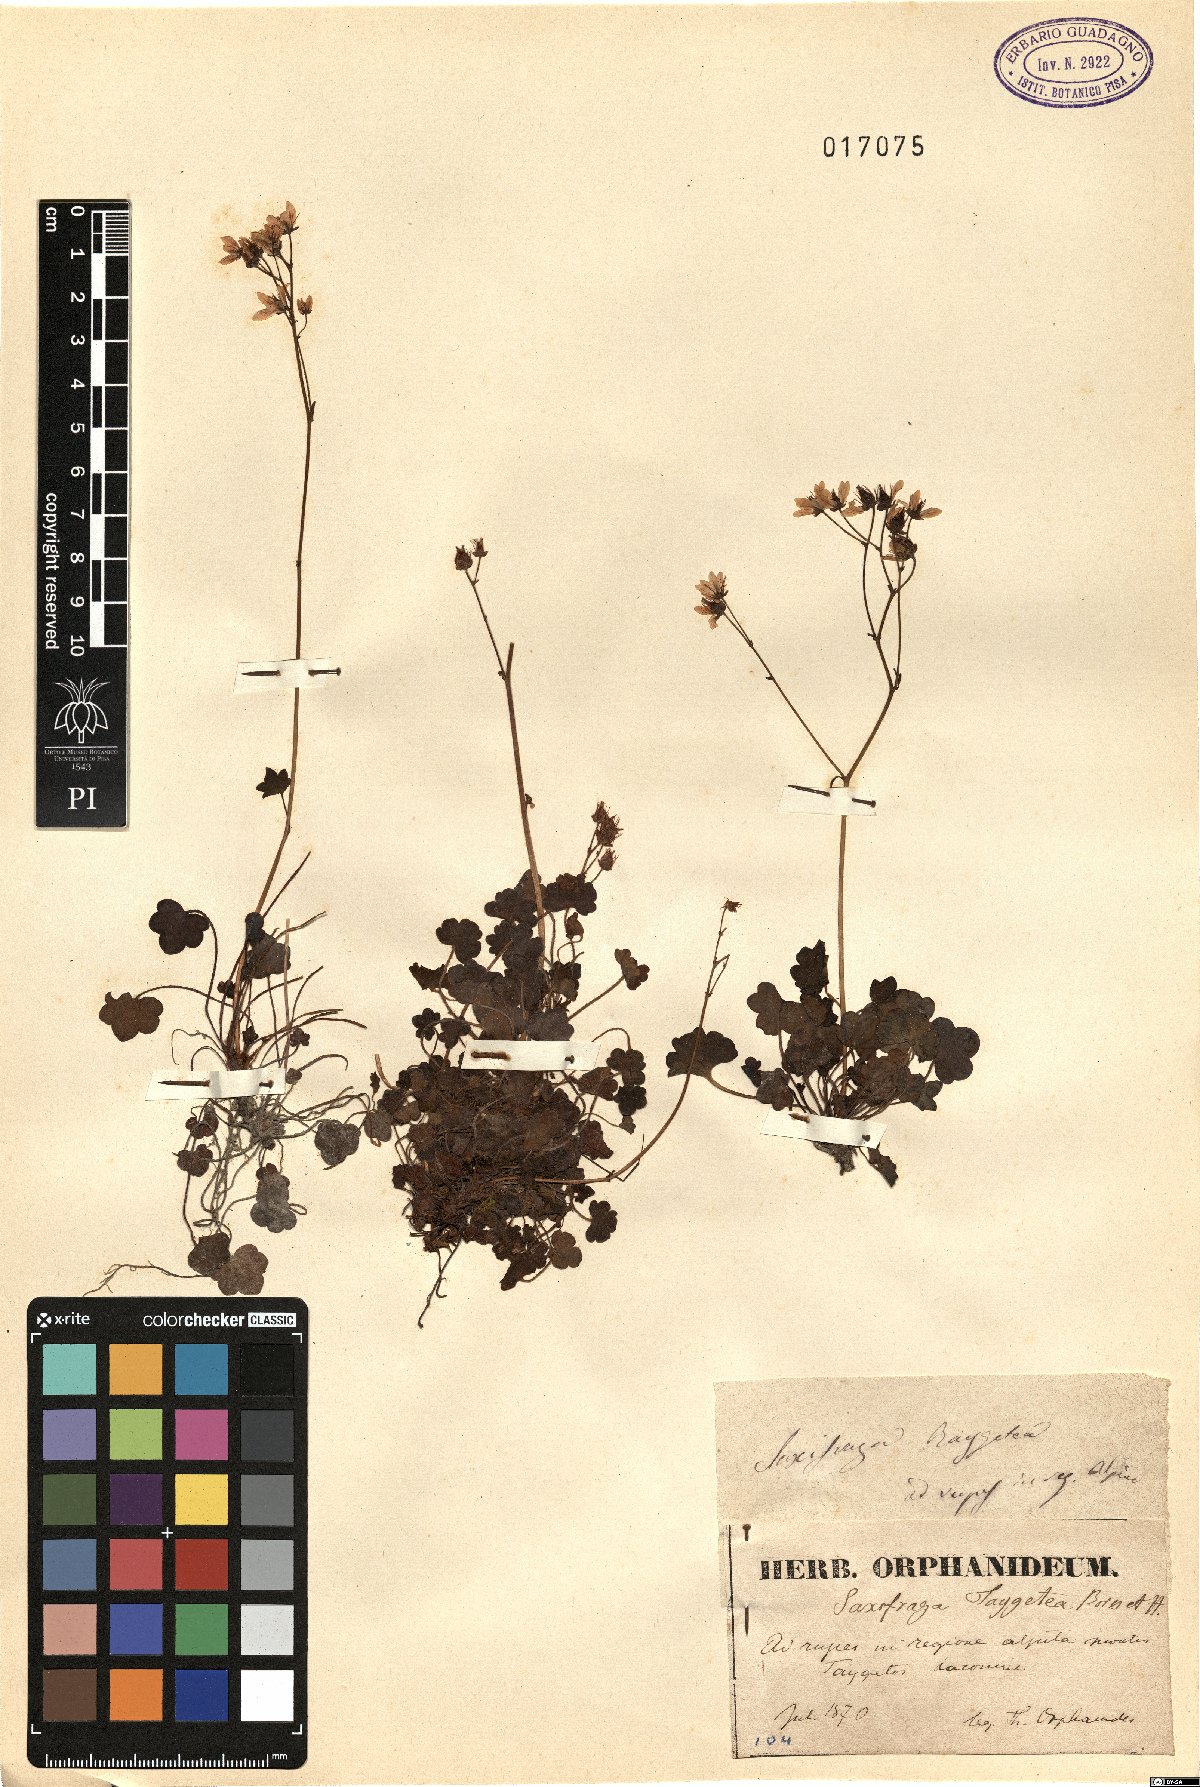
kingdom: Plantae
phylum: Tracheophyta
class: Magnoliopsida
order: Saxifragales
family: Saxifragaceae
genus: Saxifraga
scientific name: Saxifraga taygetea
